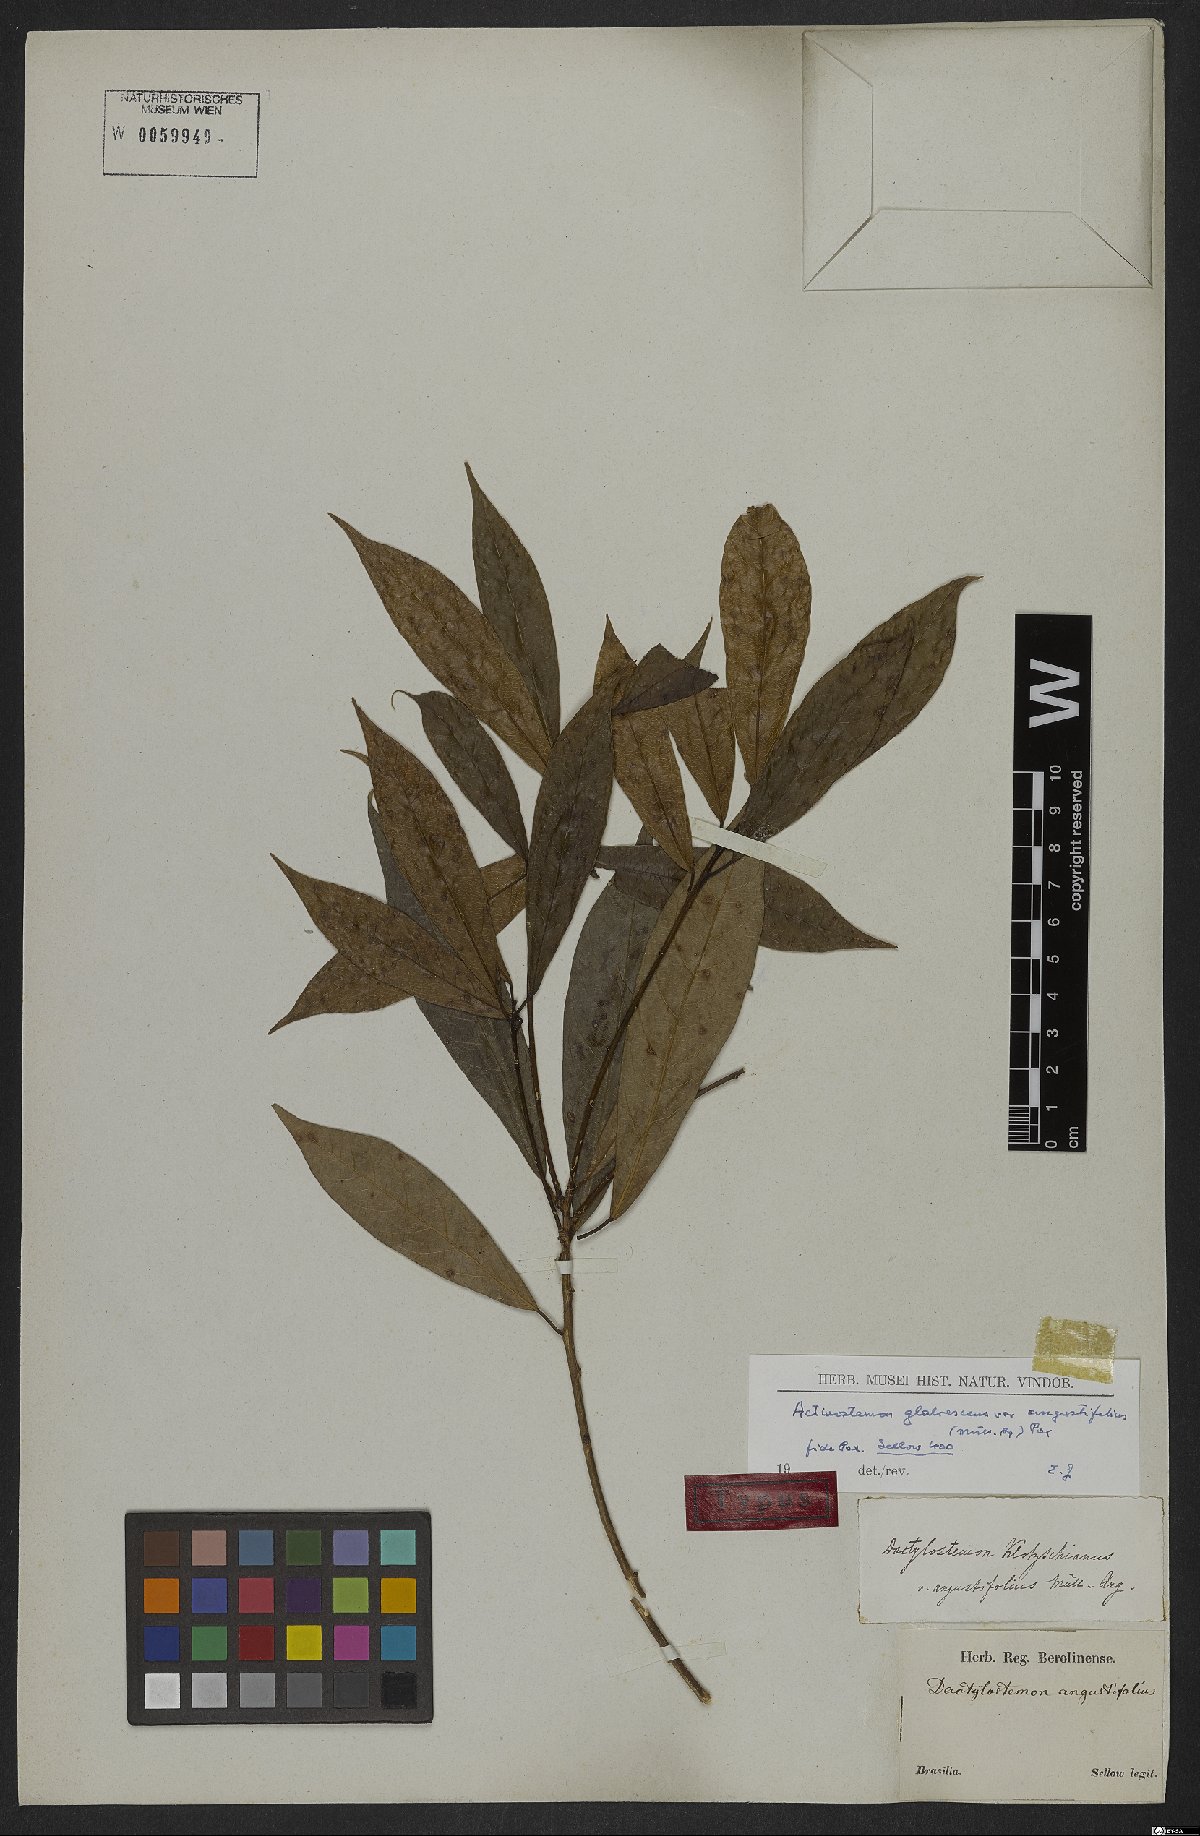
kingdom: Plantae
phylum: Tracheophyta
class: Magnoliopsida
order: Malpighiales
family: Euphorbiaceae
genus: Actinostemon
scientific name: Actinostemon klotzschii
